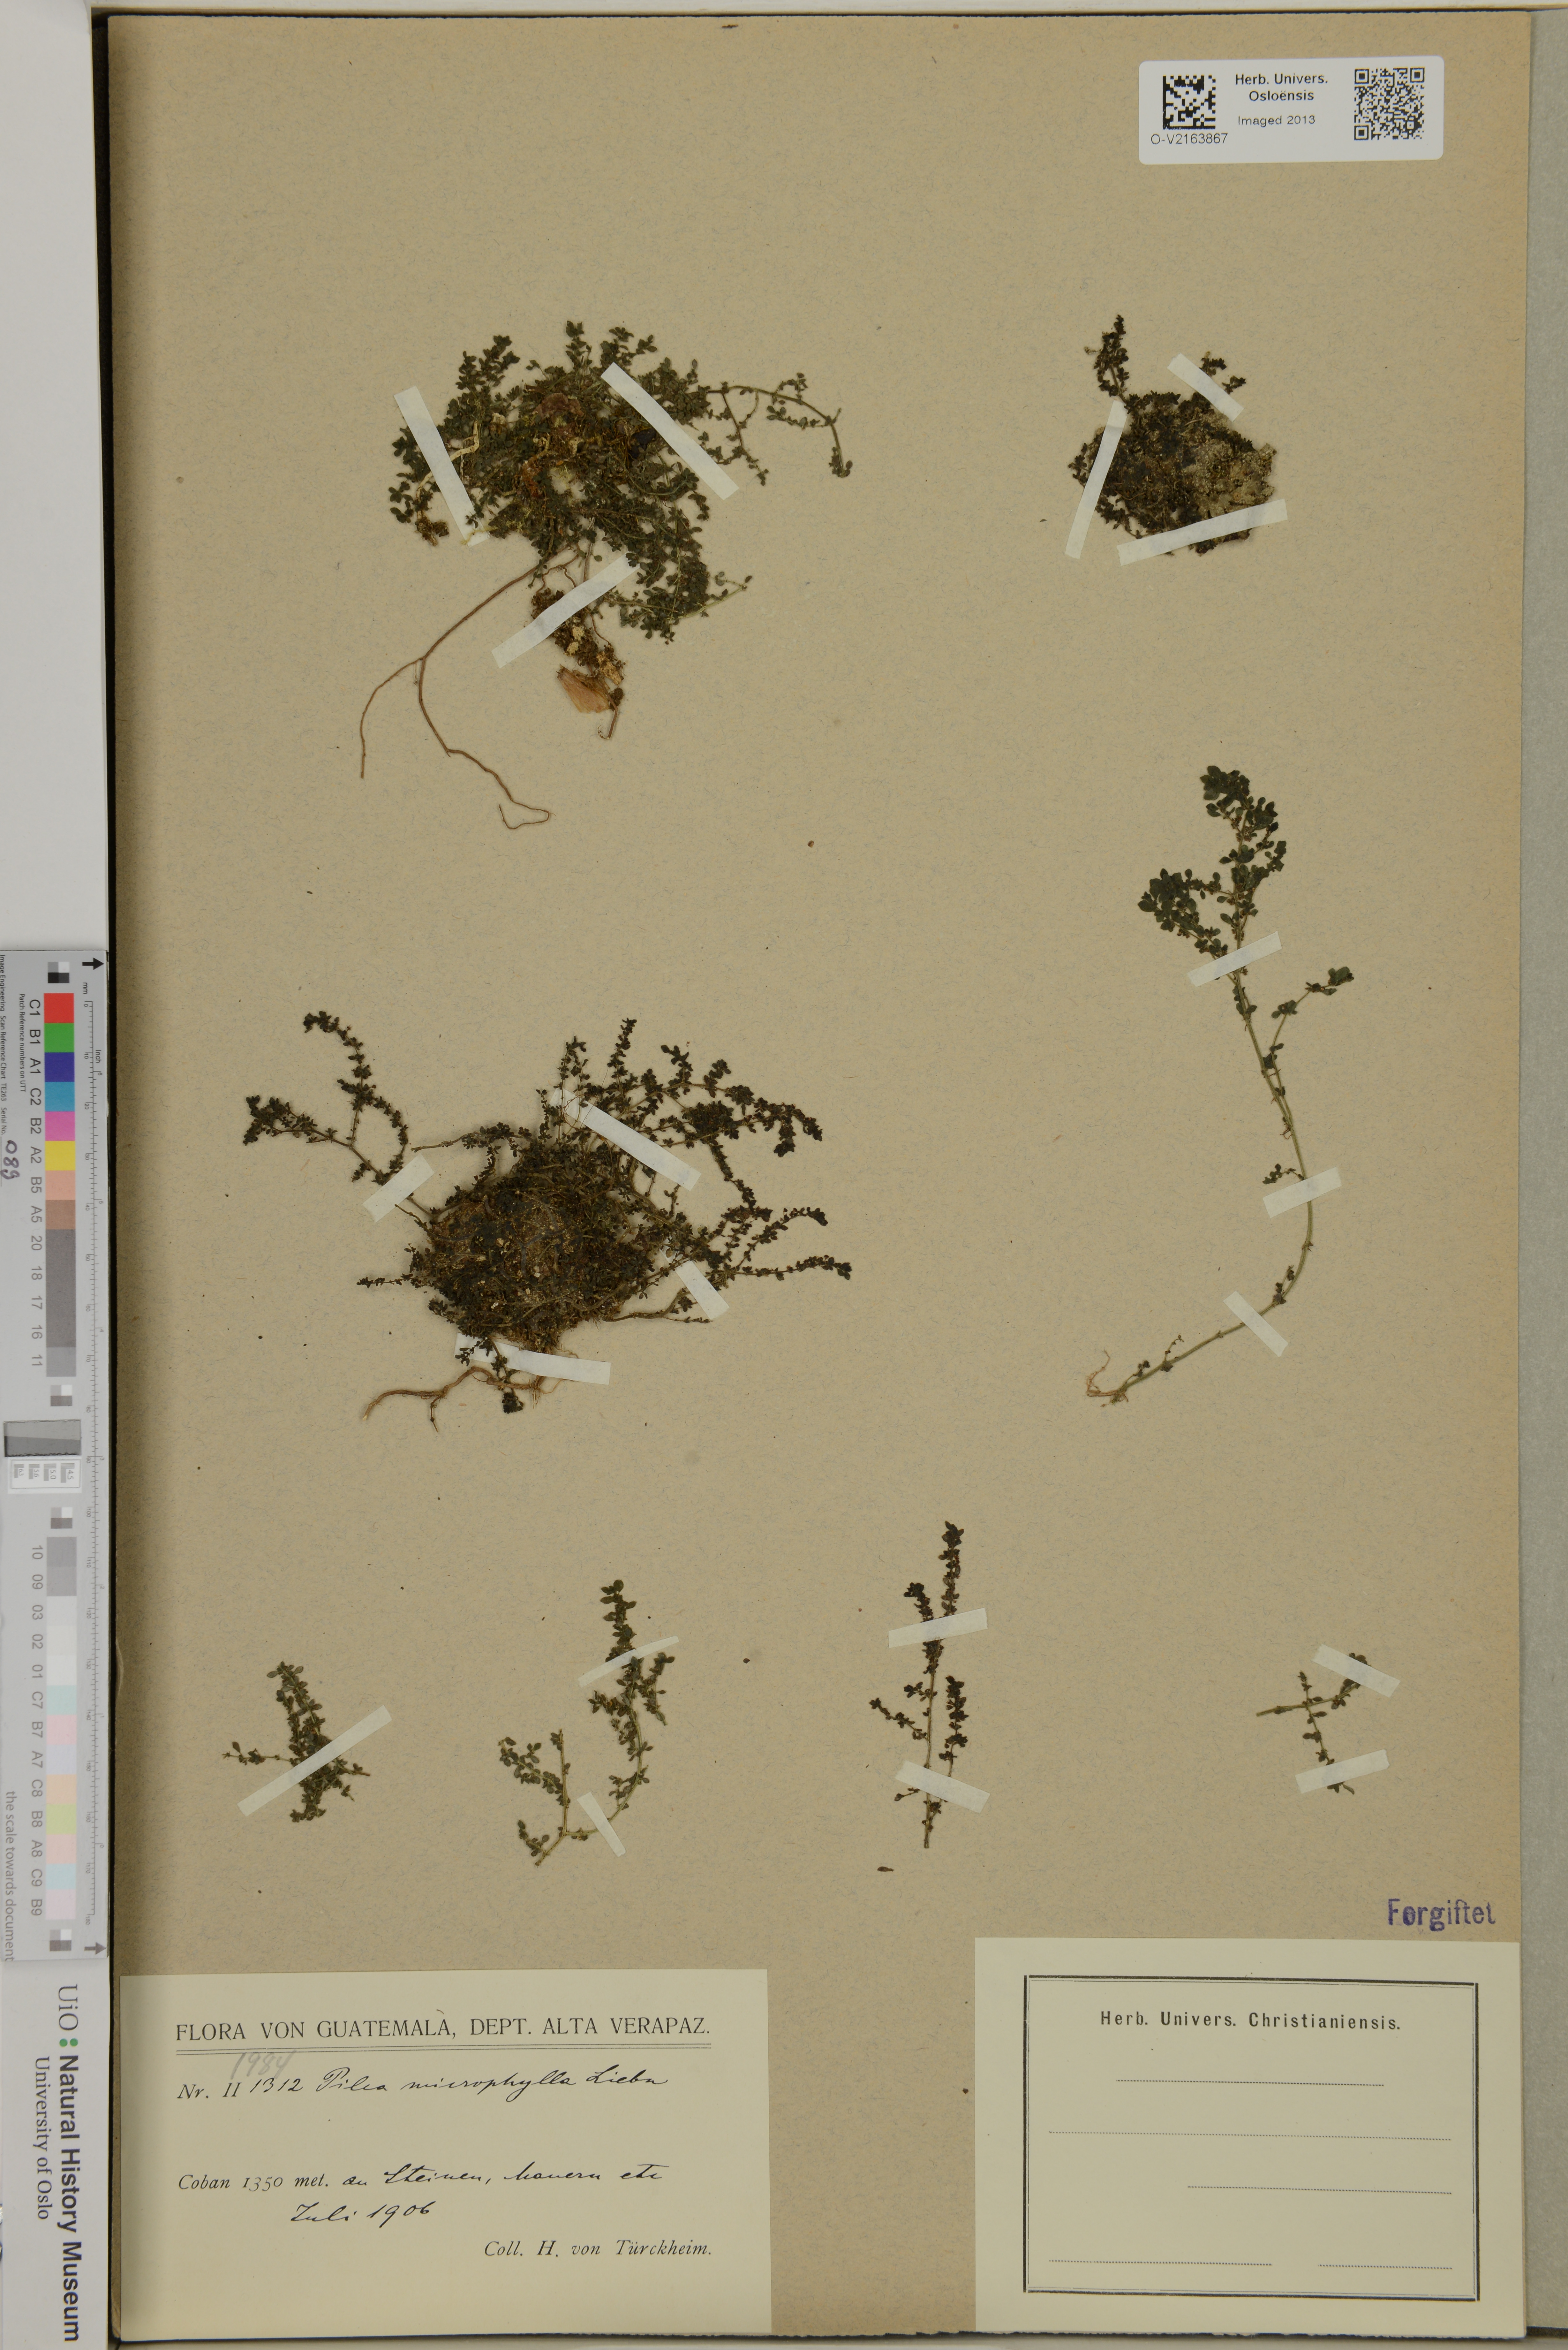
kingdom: Plantae
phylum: Tracheophyta
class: Magnoliopsida
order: Rosales
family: Urticaceae
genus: Pilea
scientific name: Pilea microphylla
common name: Artillery-plant
